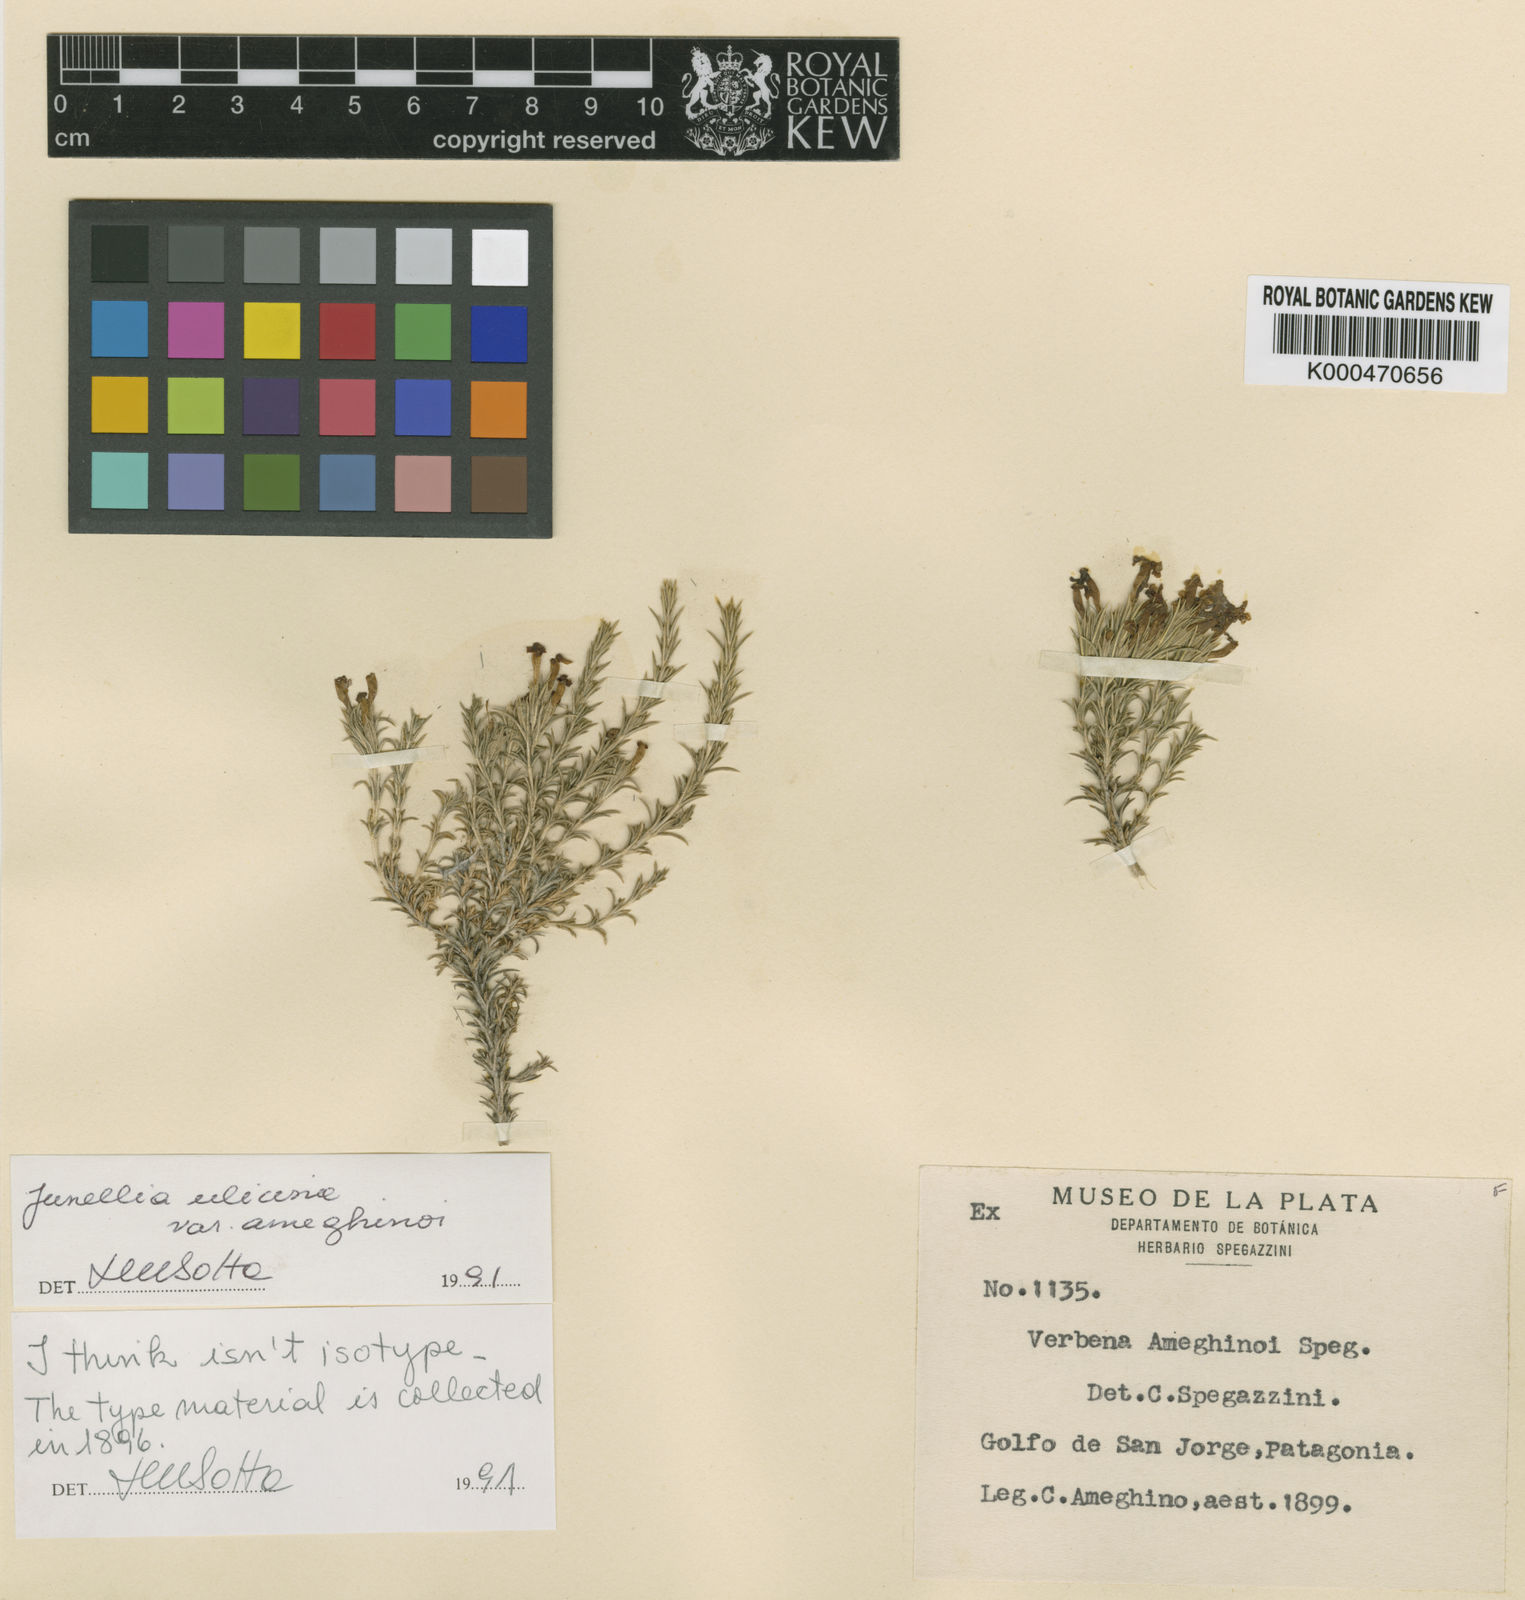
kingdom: Plantae
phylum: Tracheophyta
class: Magnoliopsida
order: Lamiales
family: Verbenaceae
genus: Junellia
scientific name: Junellia ulicina
